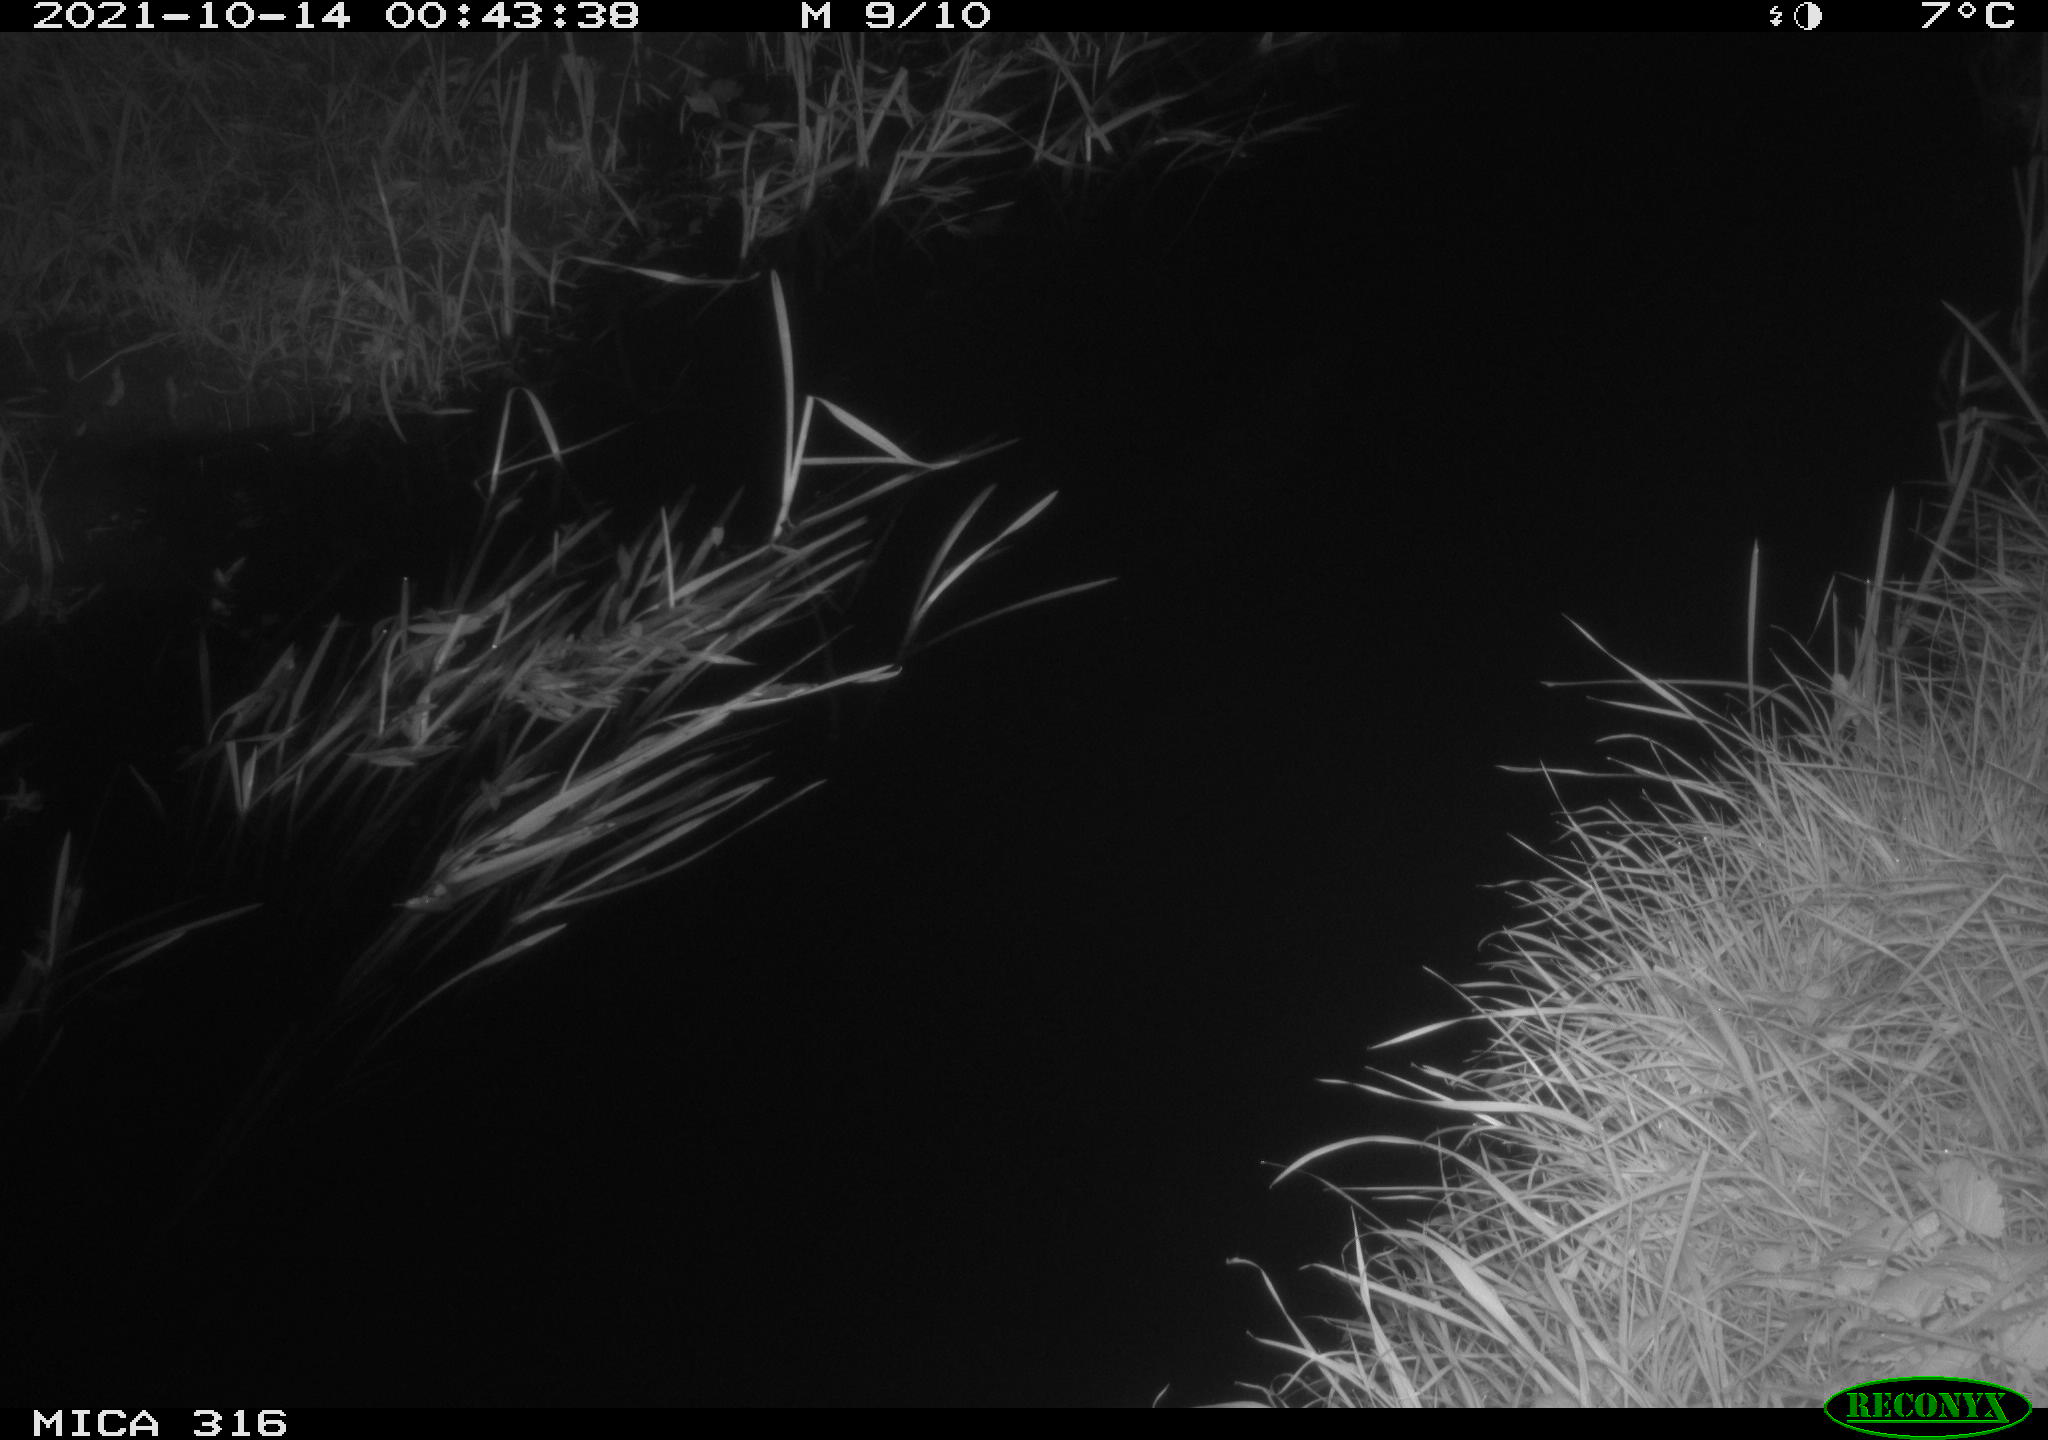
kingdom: Animalia
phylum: Chordata
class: Mammalia
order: Rodentia
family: Muridae
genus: Rattus
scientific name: Rattus norvegicus
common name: Brown rat
